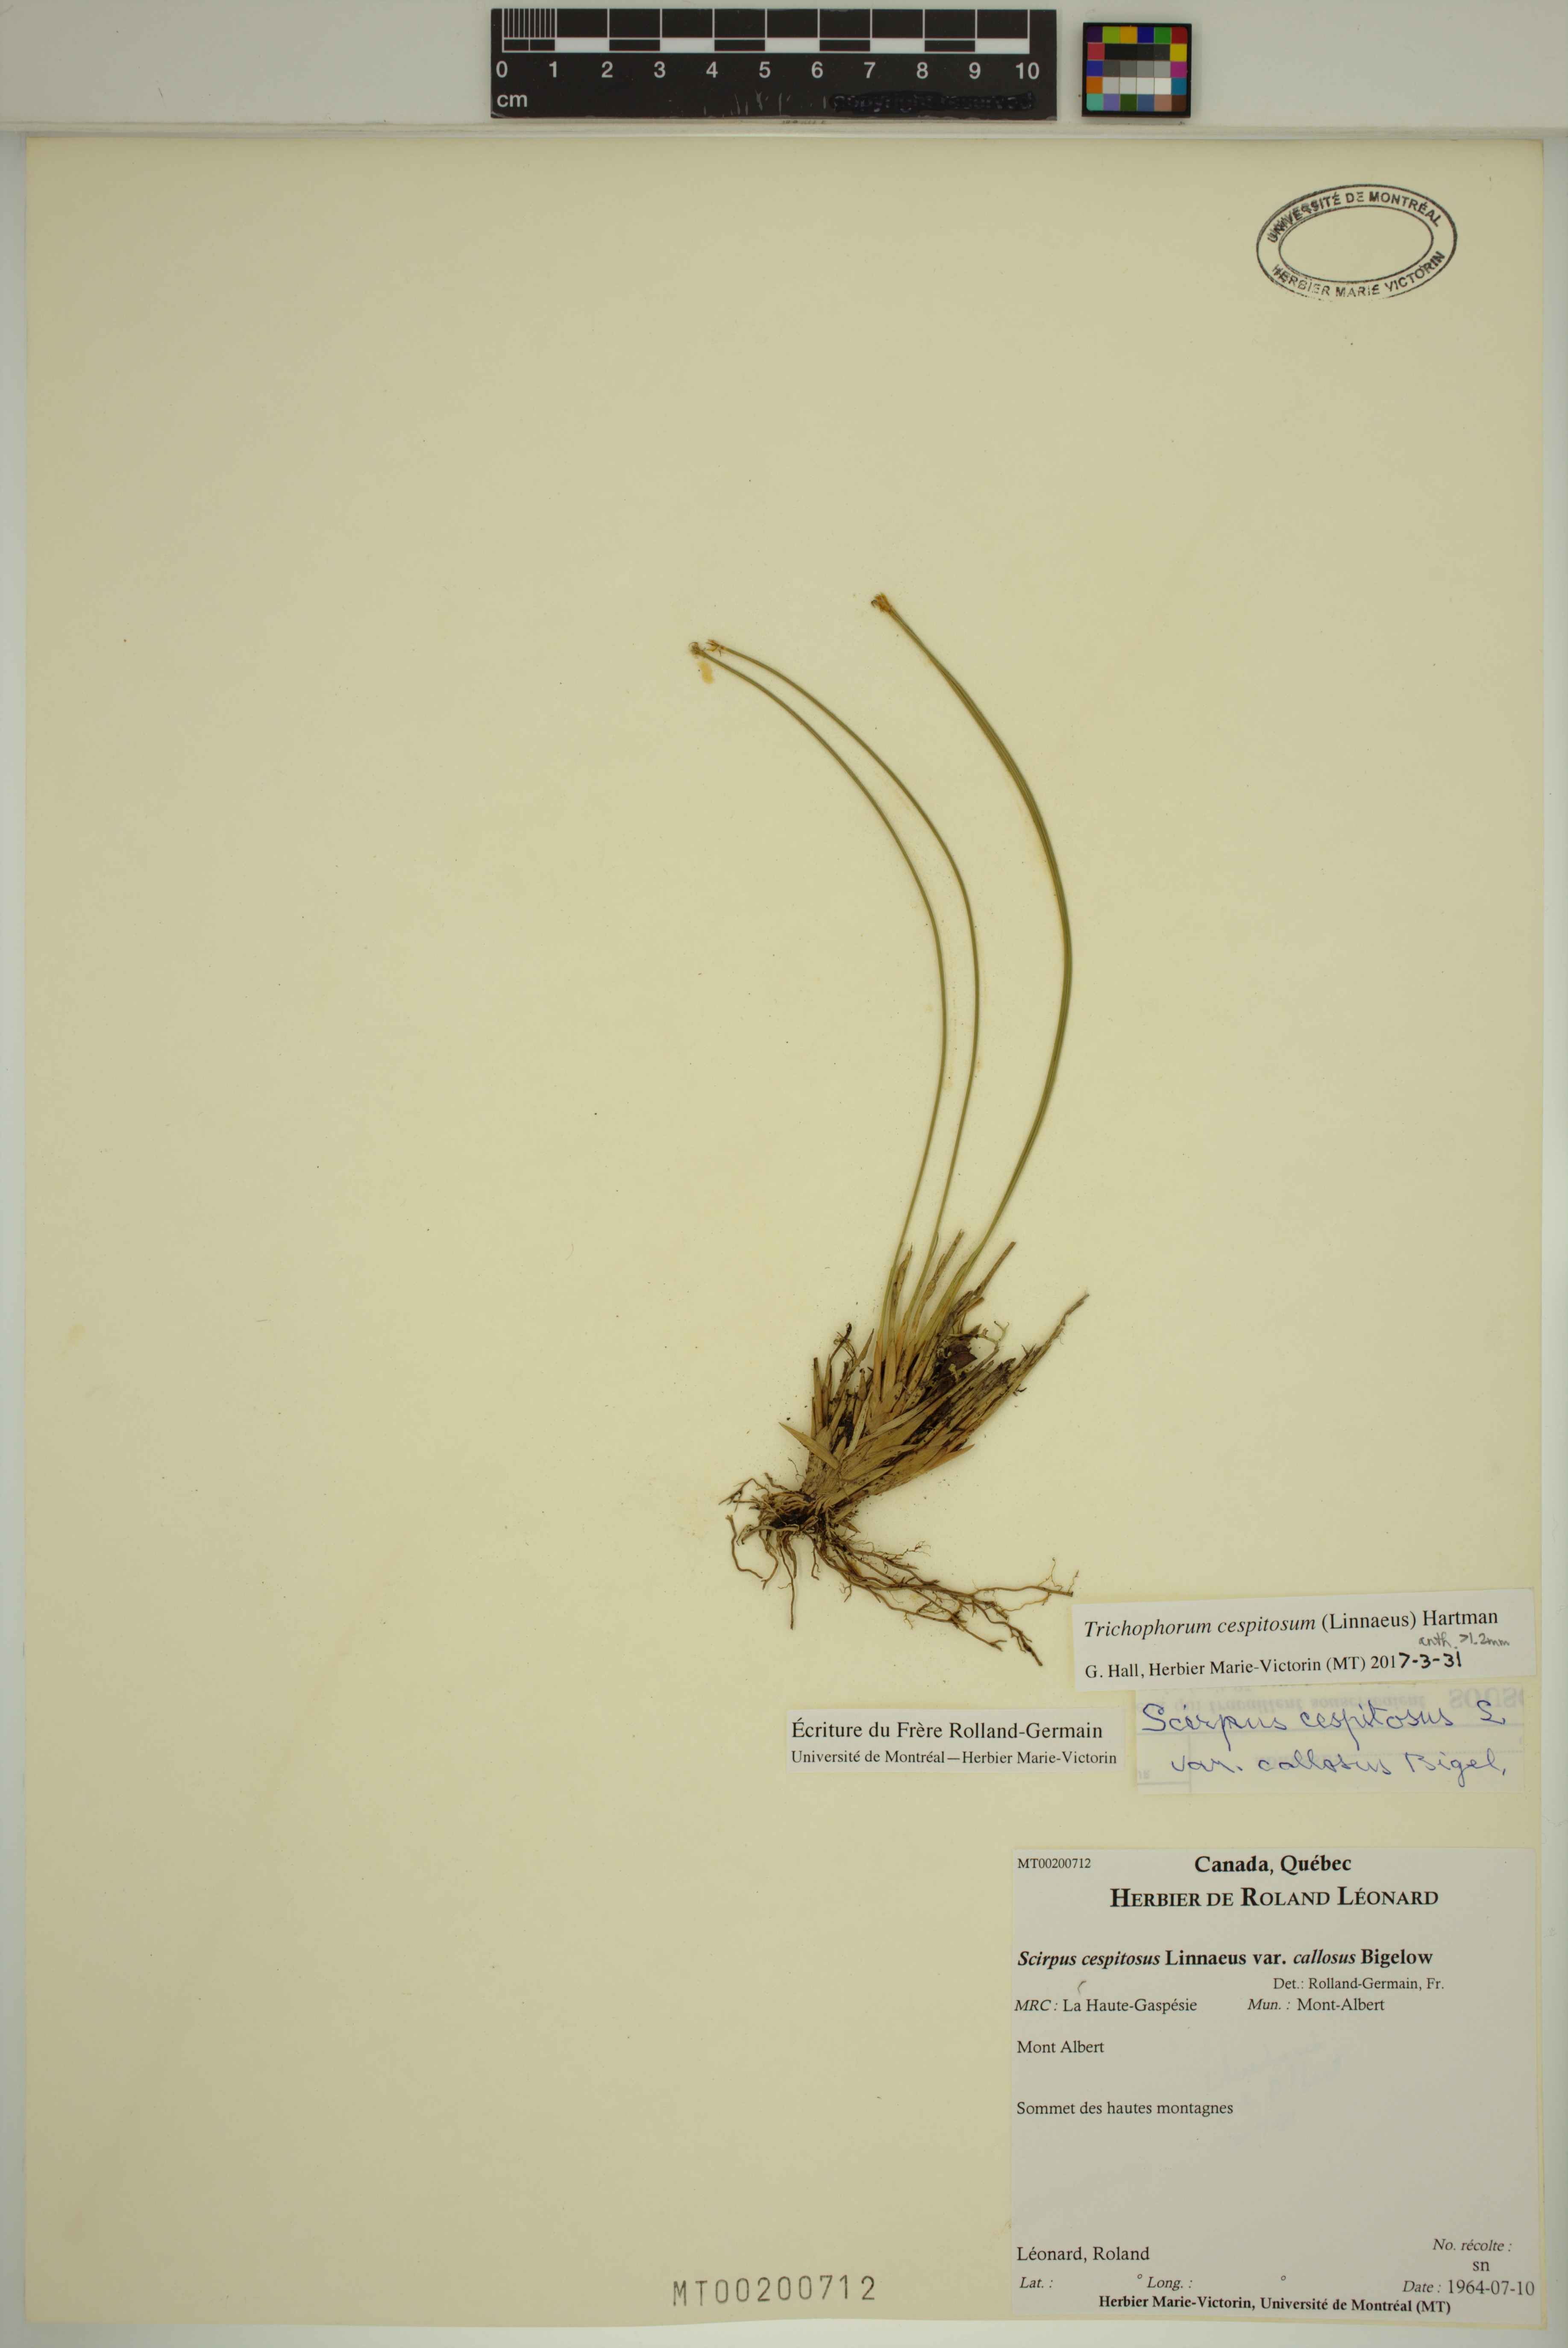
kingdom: Plantae
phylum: Tracheophyta
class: Liliopsida
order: Poales
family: Cyperaceae
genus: Trichophorum
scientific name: Trichophorum cespitosum
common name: Cespitose bulrush
